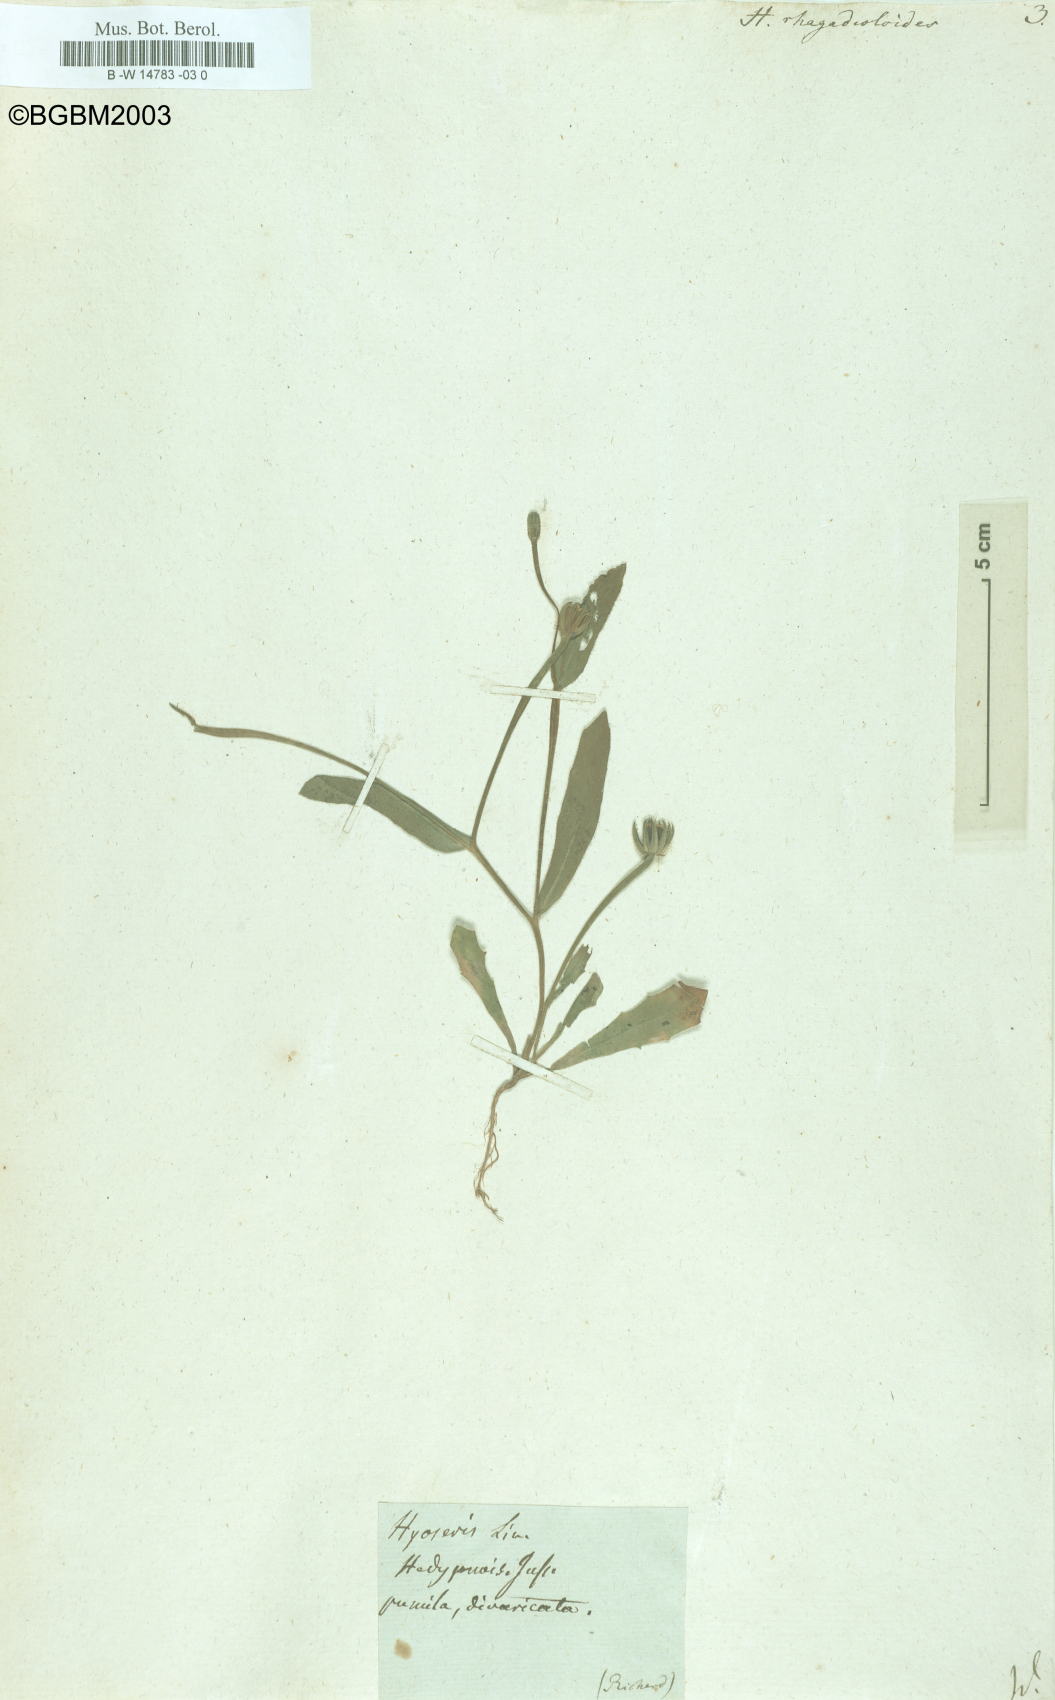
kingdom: Plantae
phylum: Tracheophyta
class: Magnoliopsida
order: Asterales
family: Asteraceae
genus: Hedypnois
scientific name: Hedypnois rhagadioloides
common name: Cretan weed
